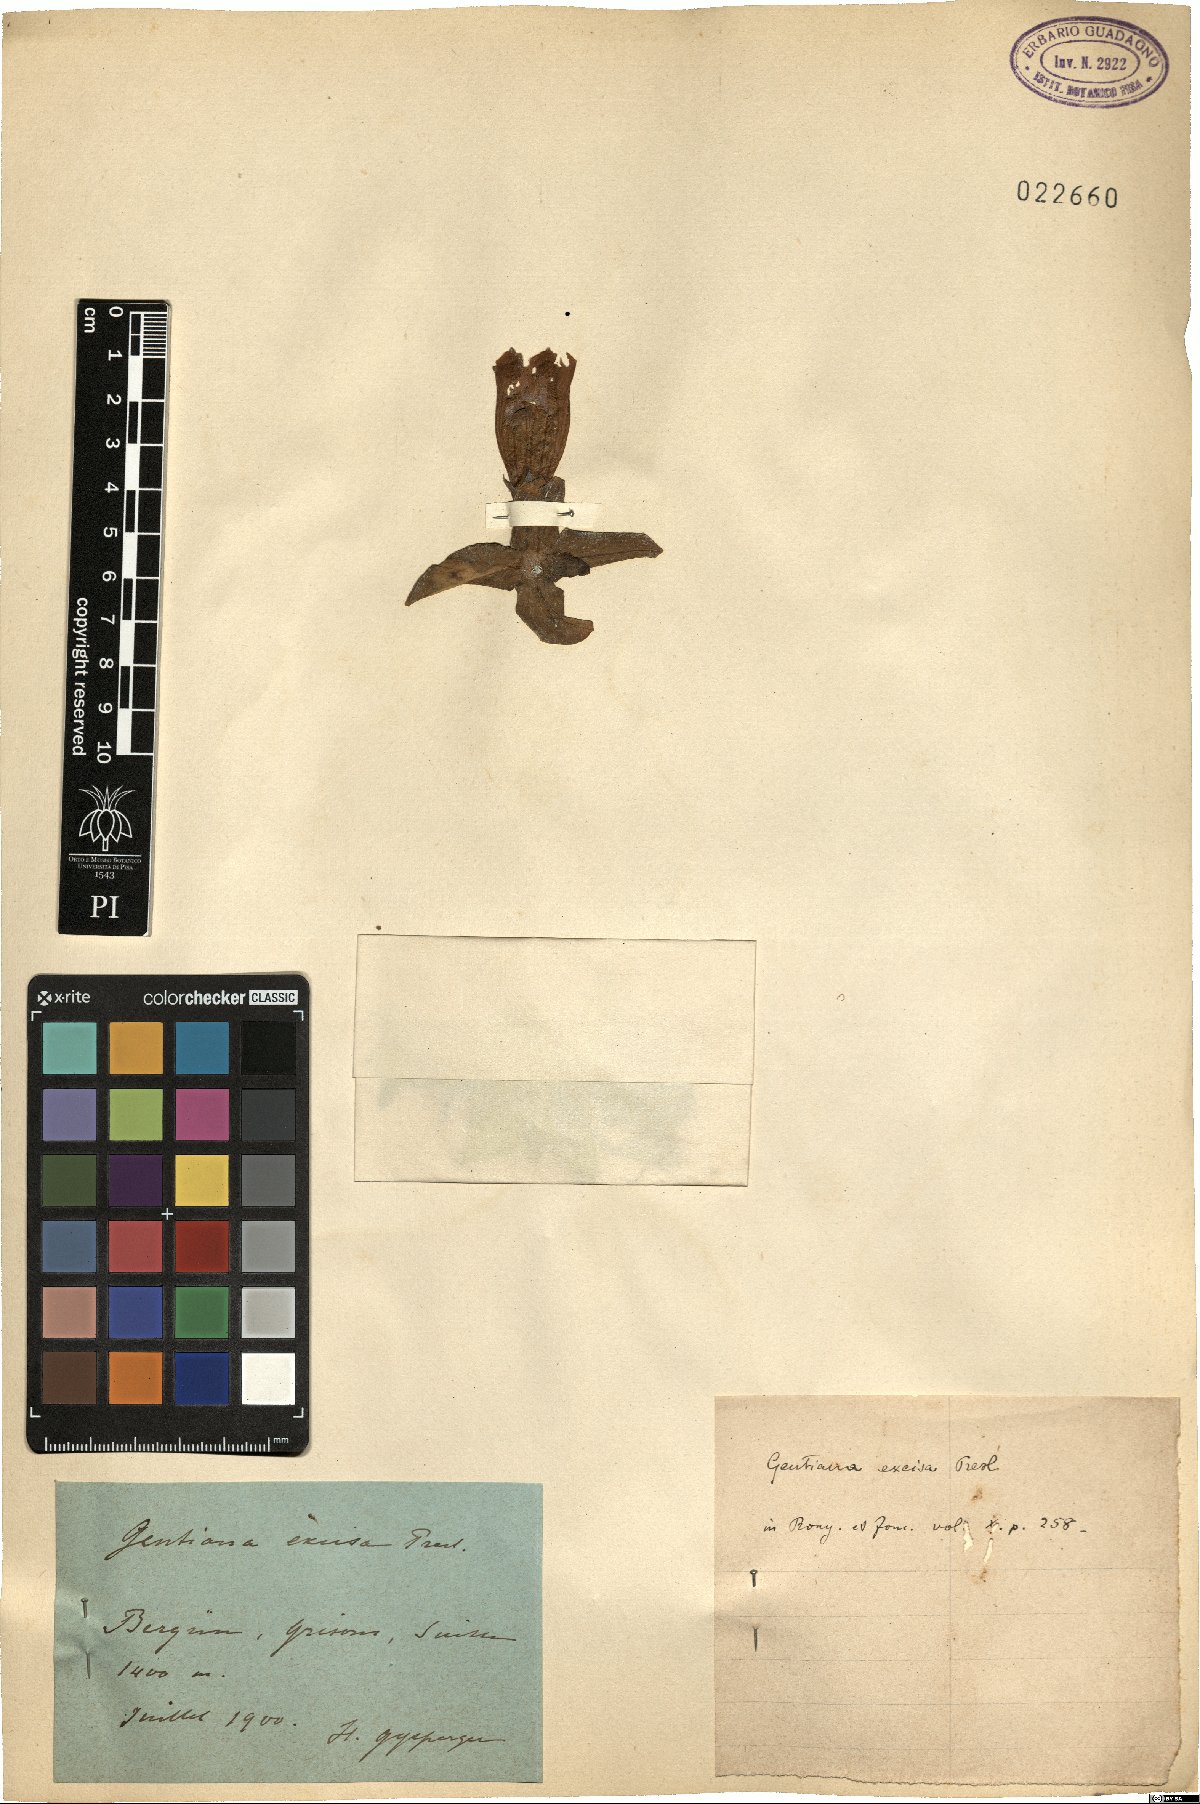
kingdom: Plantae
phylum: Tracheophyta
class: Magnoliopsida
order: Gentianales
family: Gentianaceae
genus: Gentiana
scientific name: Gentiana acaulis
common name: Trumpet gentian
